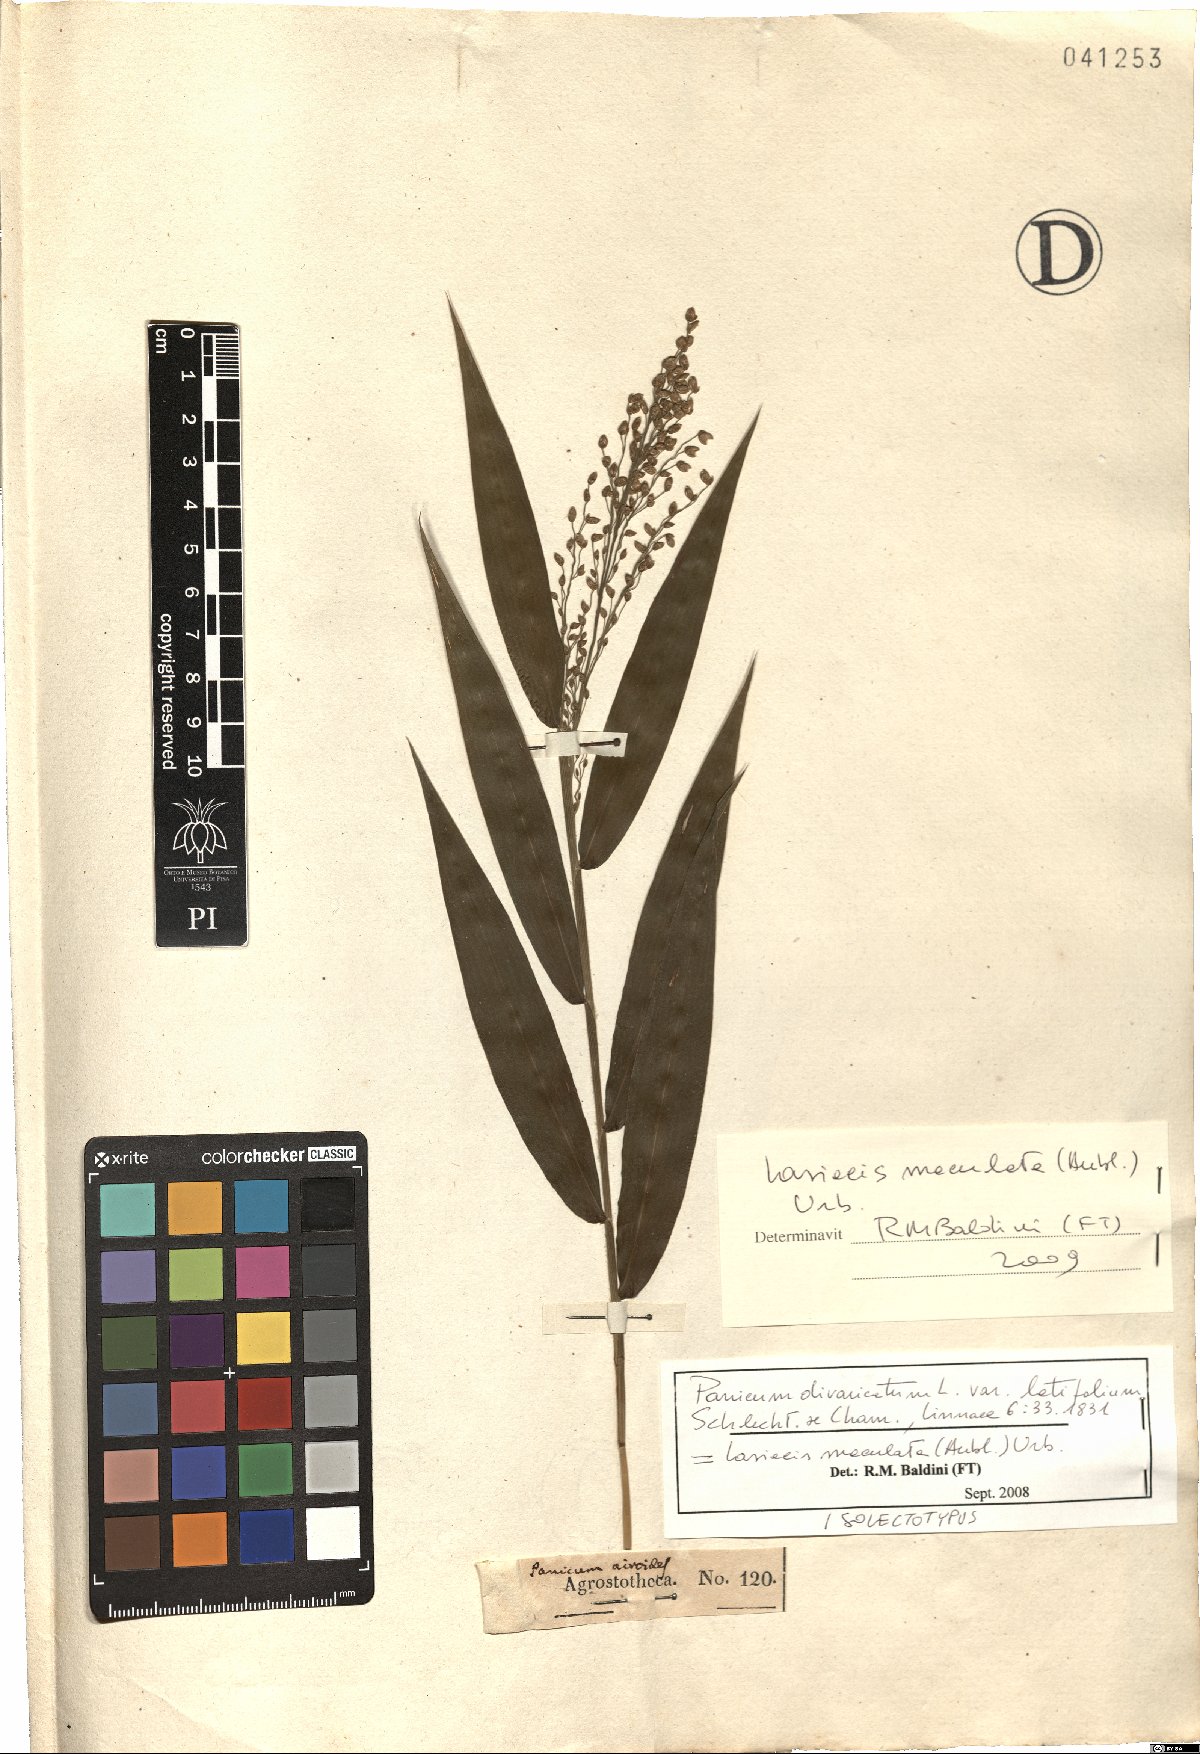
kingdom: Plantae
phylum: Tracheophyta
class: Liliopsida
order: Poales
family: Poaceae
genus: Lasiacis
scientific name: Lasiacis maculata
